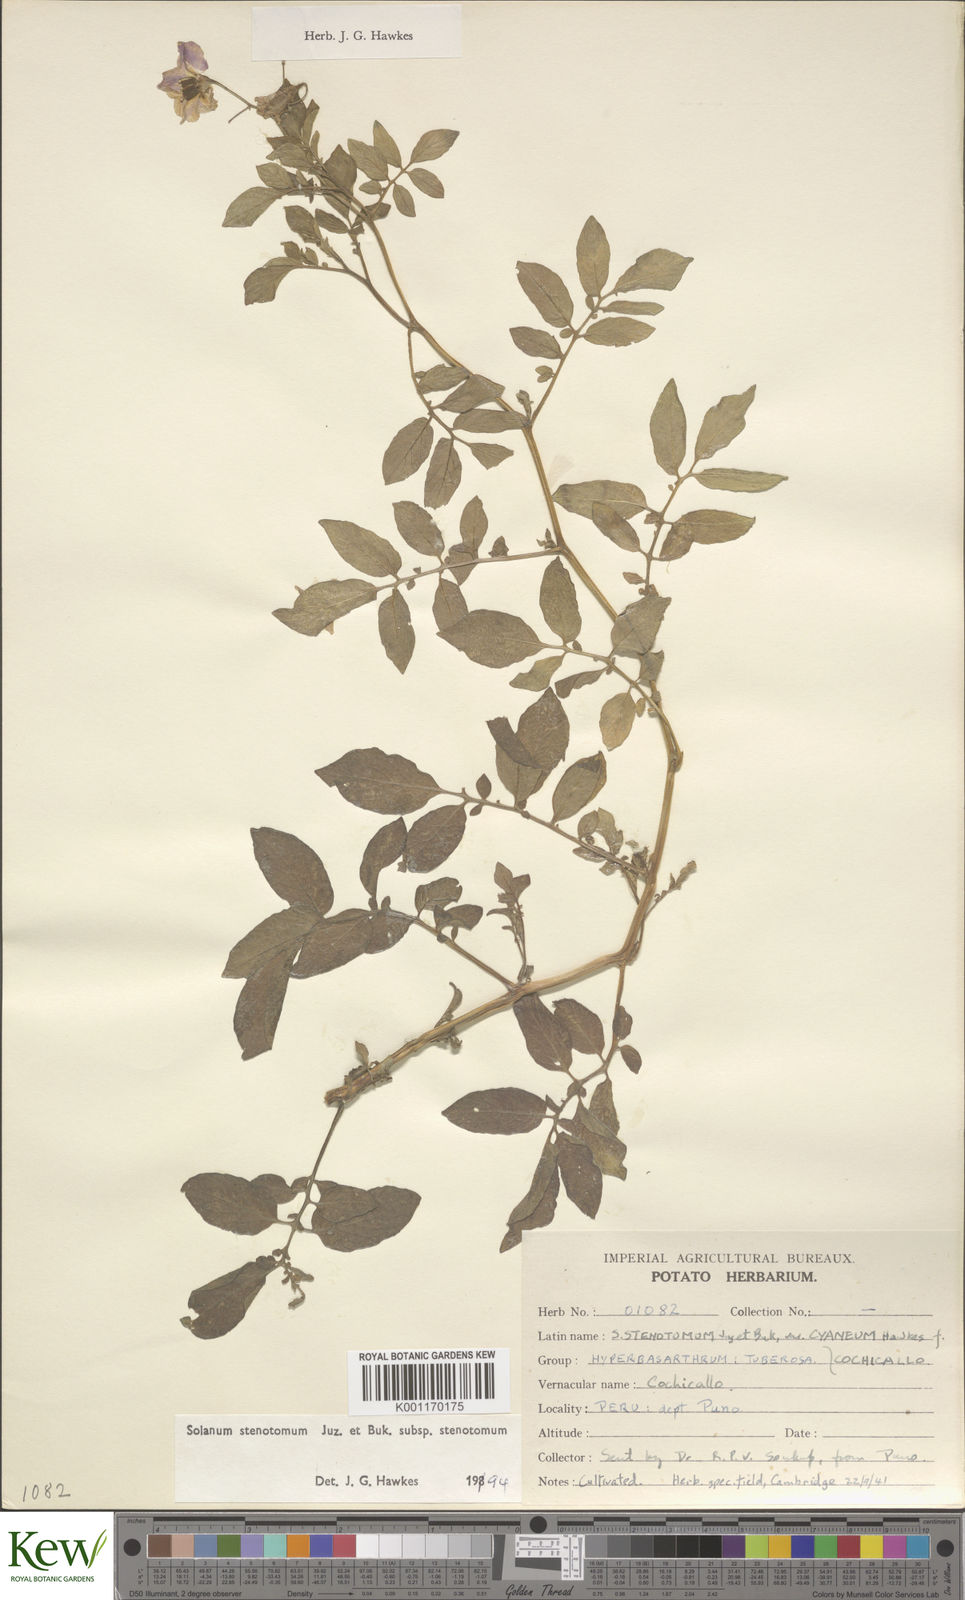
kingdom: Plantae
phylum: Tracheophyta
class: Magnoliopsida
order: Solanales
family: Solanaceae
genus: Solanum
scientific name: Solanum tuberosum
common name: Potato
